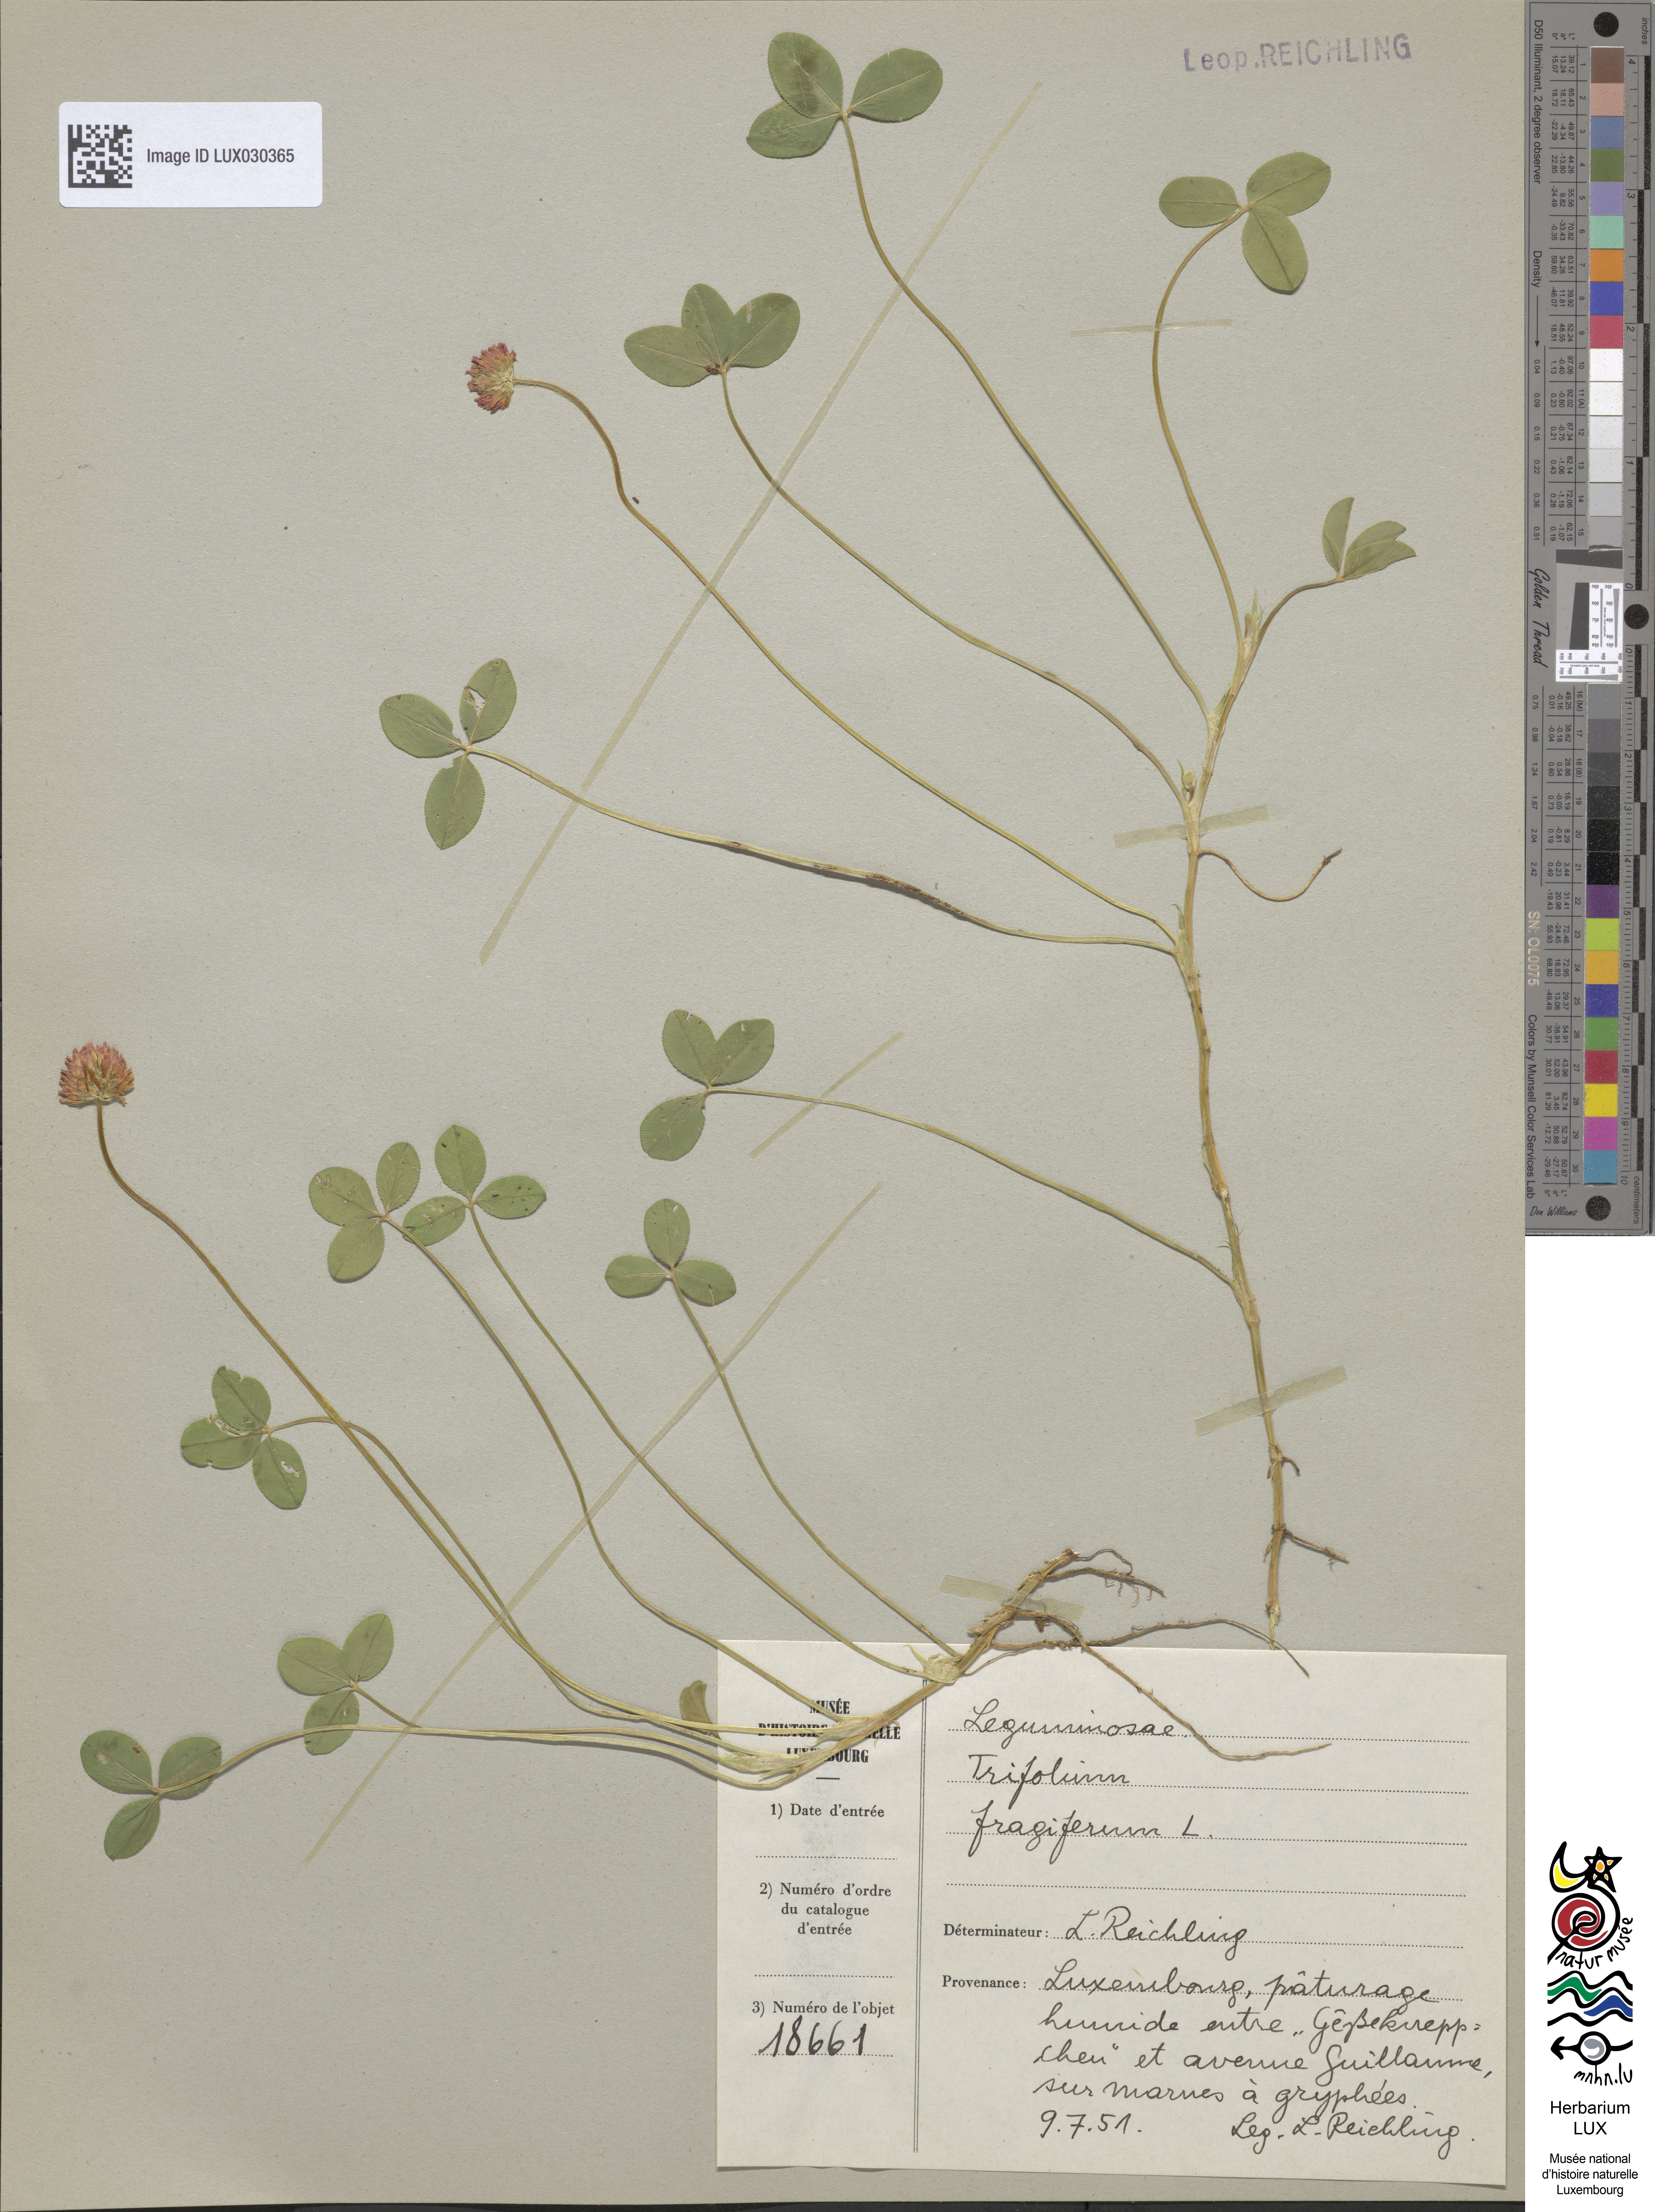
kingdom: Plantae
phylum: Tracheophyta
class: Magnoliopsida
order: Fabales
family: Fabaceae
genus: Trifolium
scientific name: Trifolium fragiferum
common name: Strawberry clover
